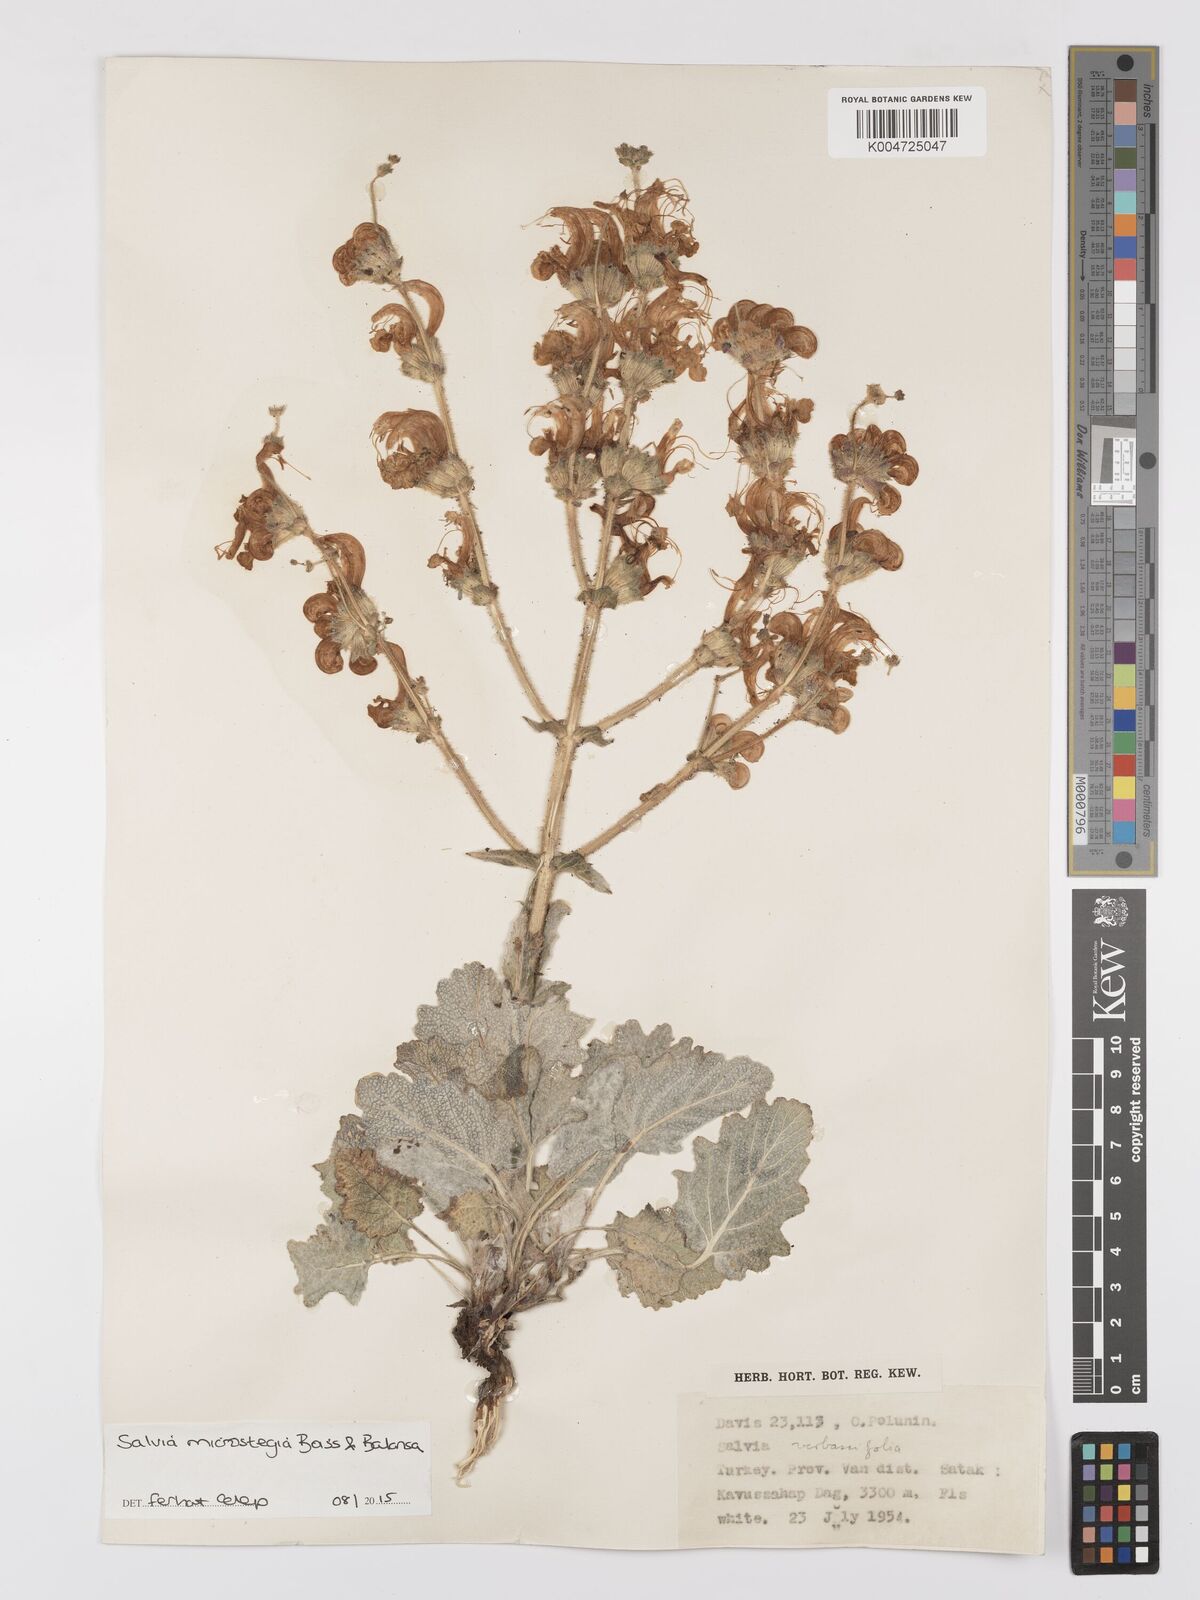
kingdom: Plantae
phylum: Tracheophyta
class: Magnoliopsida
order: Lamiales
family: Lamiaceae
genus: Salvia
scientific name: Salvia microstegia
